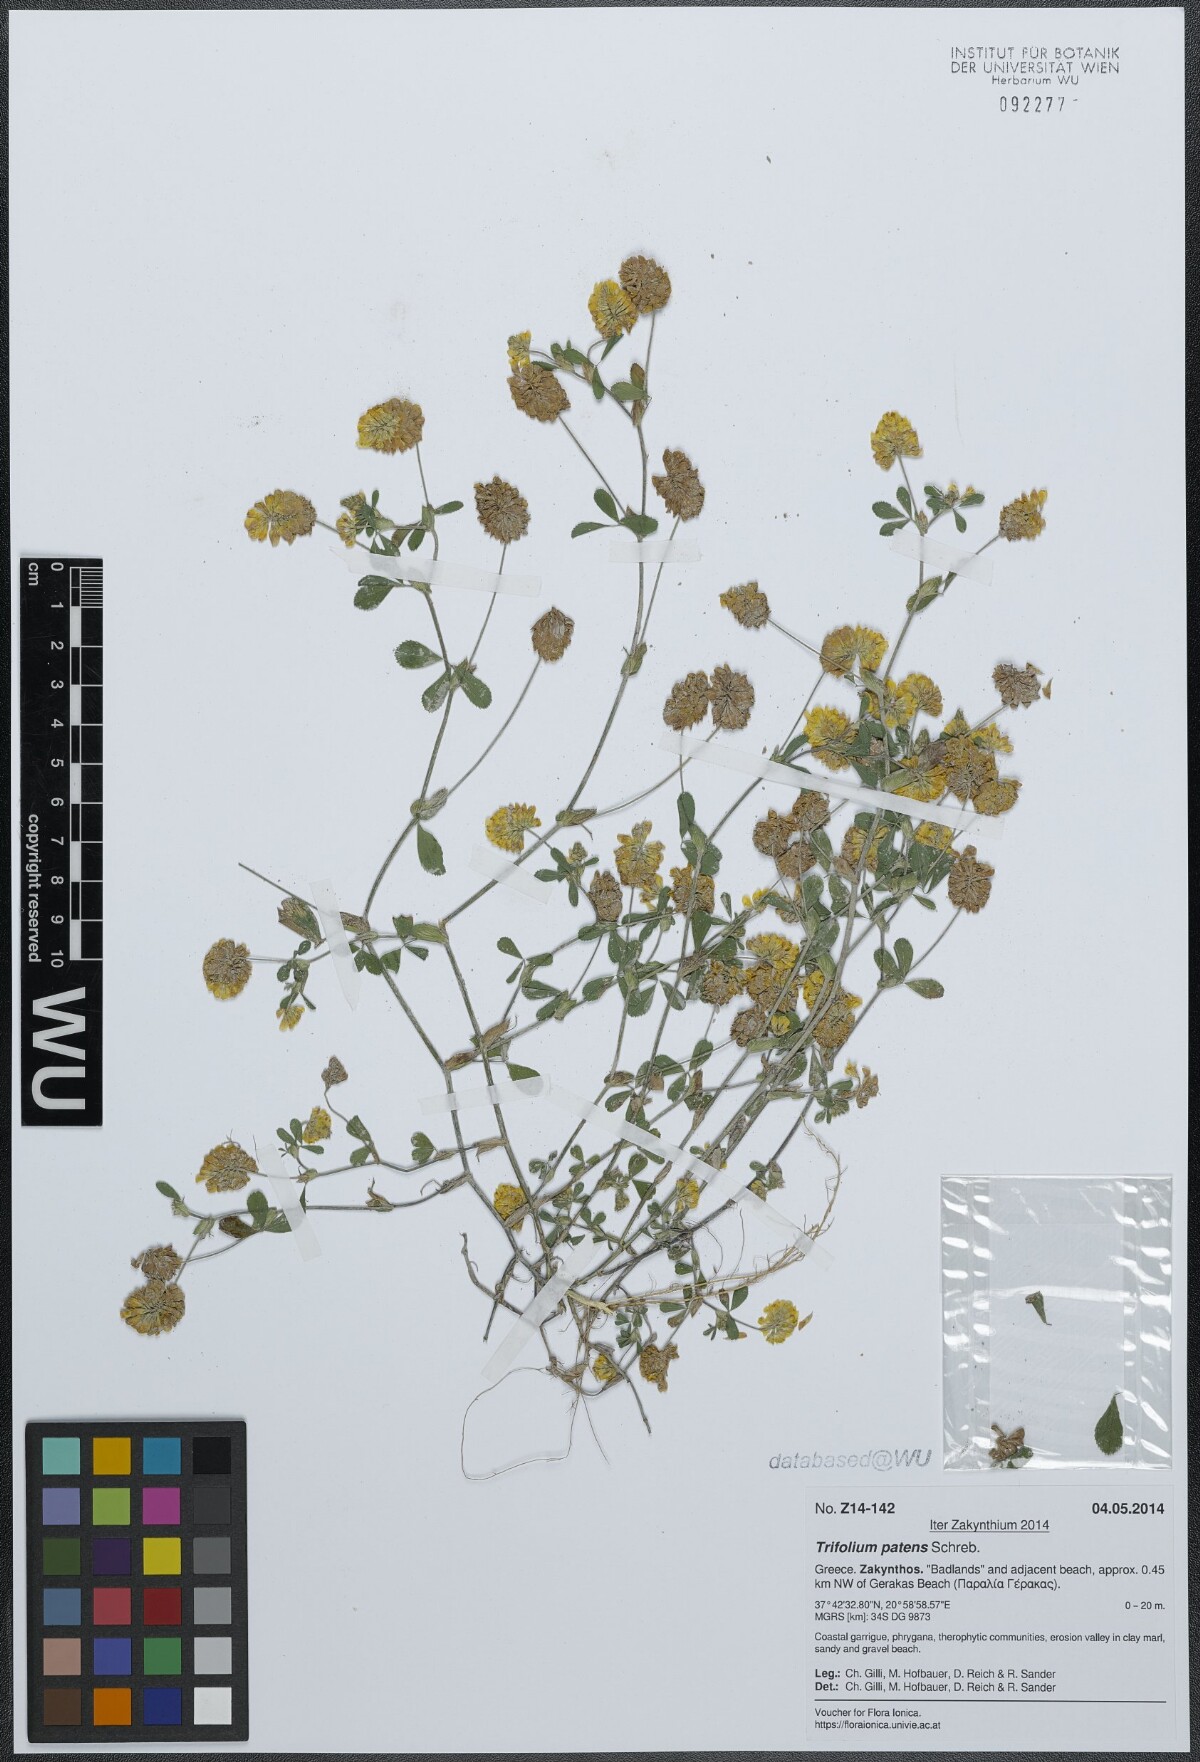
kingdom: Plantae
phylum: Tracheophyta
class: Magnoliopsida
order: Fabales
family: Fabaceae
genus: Trifolium
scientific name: Trifolium patens
